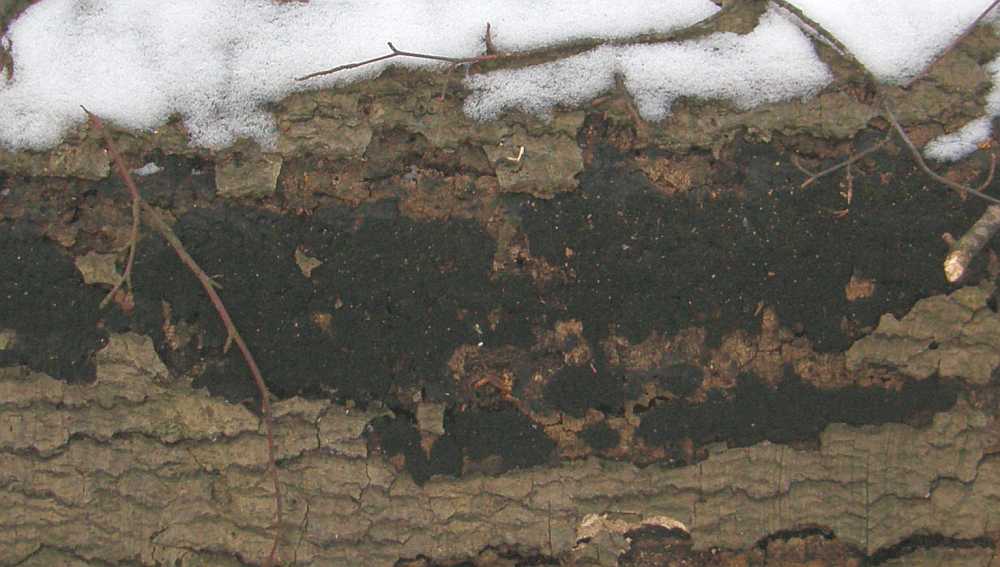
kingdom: Fungi
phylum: Ascomycota
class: Sordariomycetes
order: Xylariales
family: Diatrypaceae
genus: Eutypa
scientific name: Eutypa spinosa
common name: grov kulskorpe
